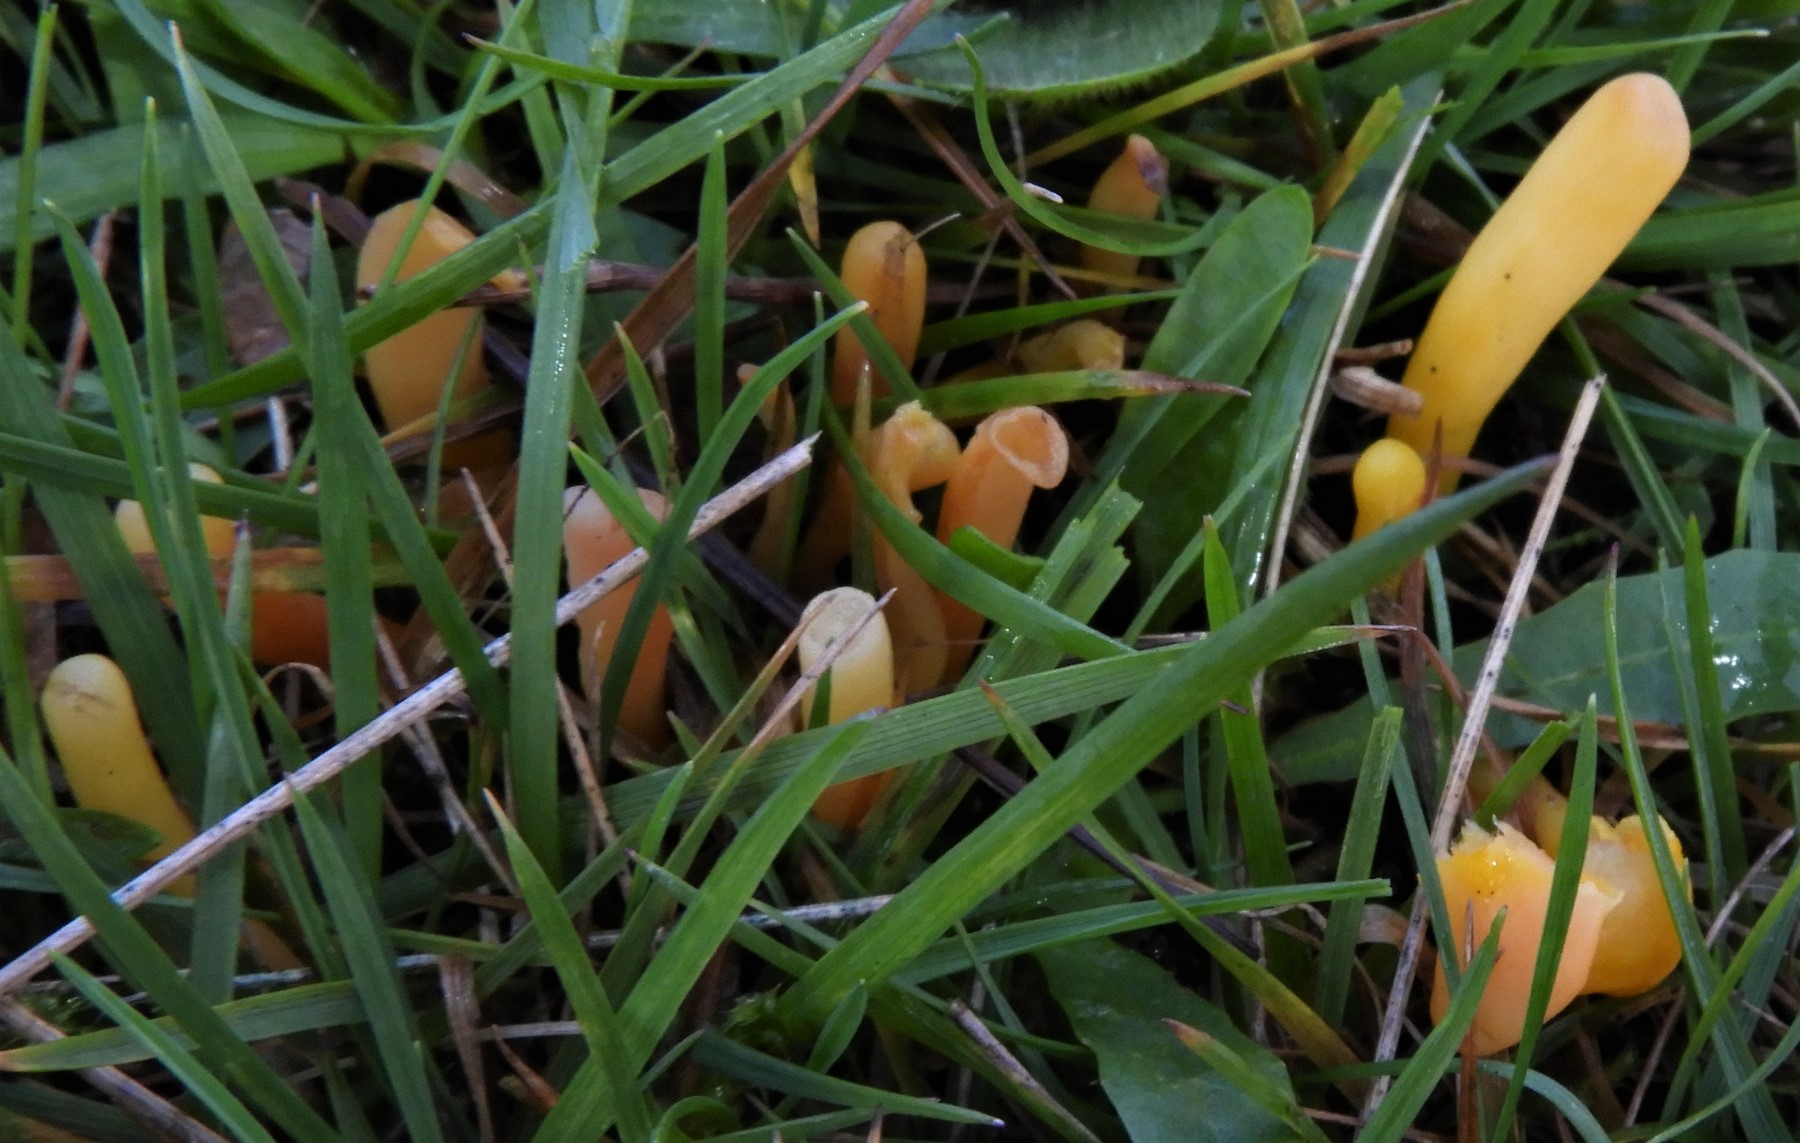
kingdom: Fungi
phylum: Basidiomycota
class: Agaricomycetes
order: Agaricales
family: Clavariaceae
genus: Clavulinopsis
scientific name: Clavulinopsis
